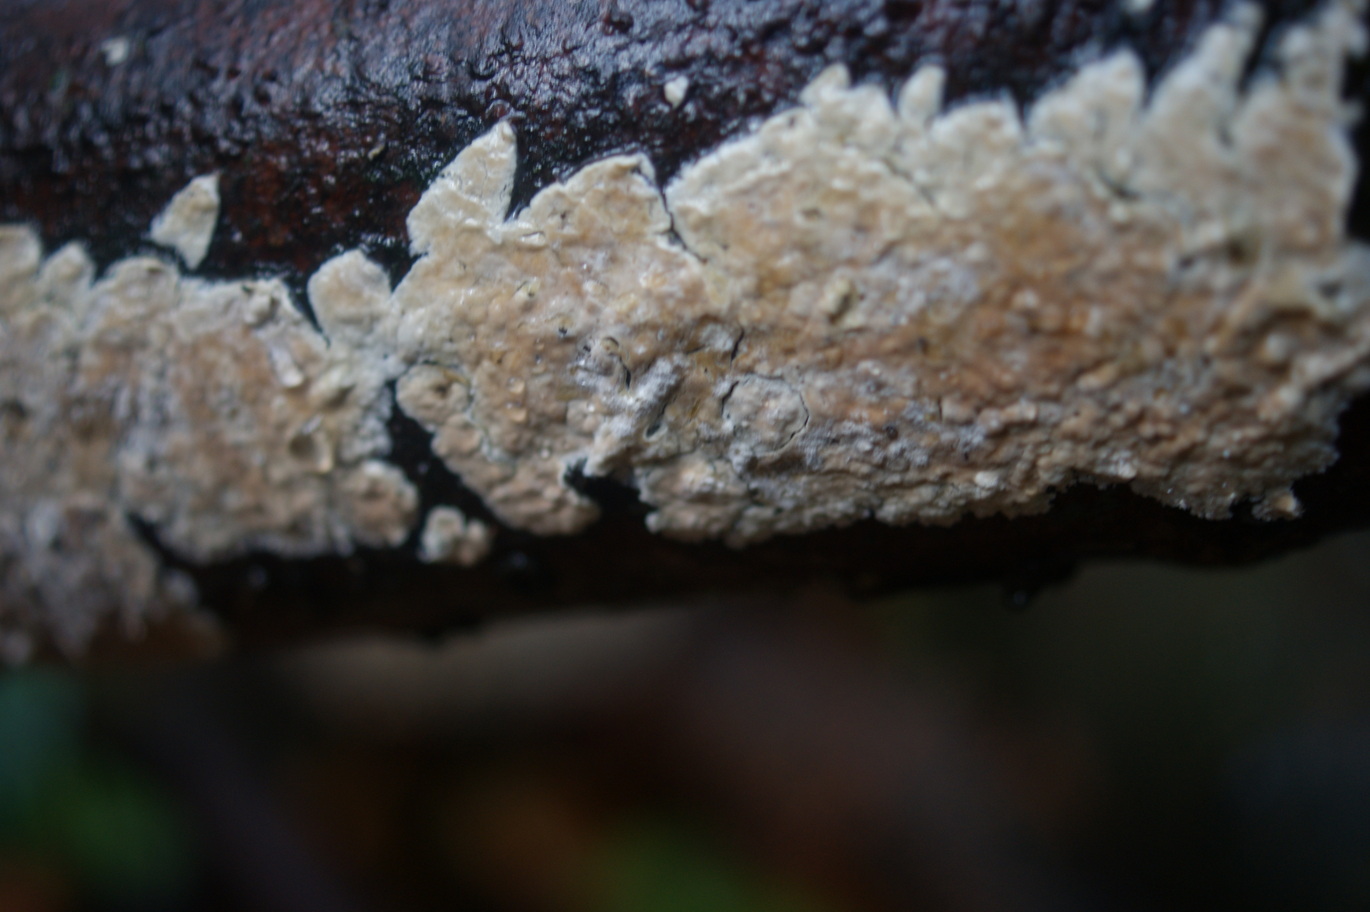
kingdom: Fungi
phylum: Basidiomycota
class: Agaricomycetes
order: Agaricales
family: Physalacriaceae
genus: Cylindrobasidium
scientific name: Cylindrobasidium evolvens
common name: sprækkehinde
